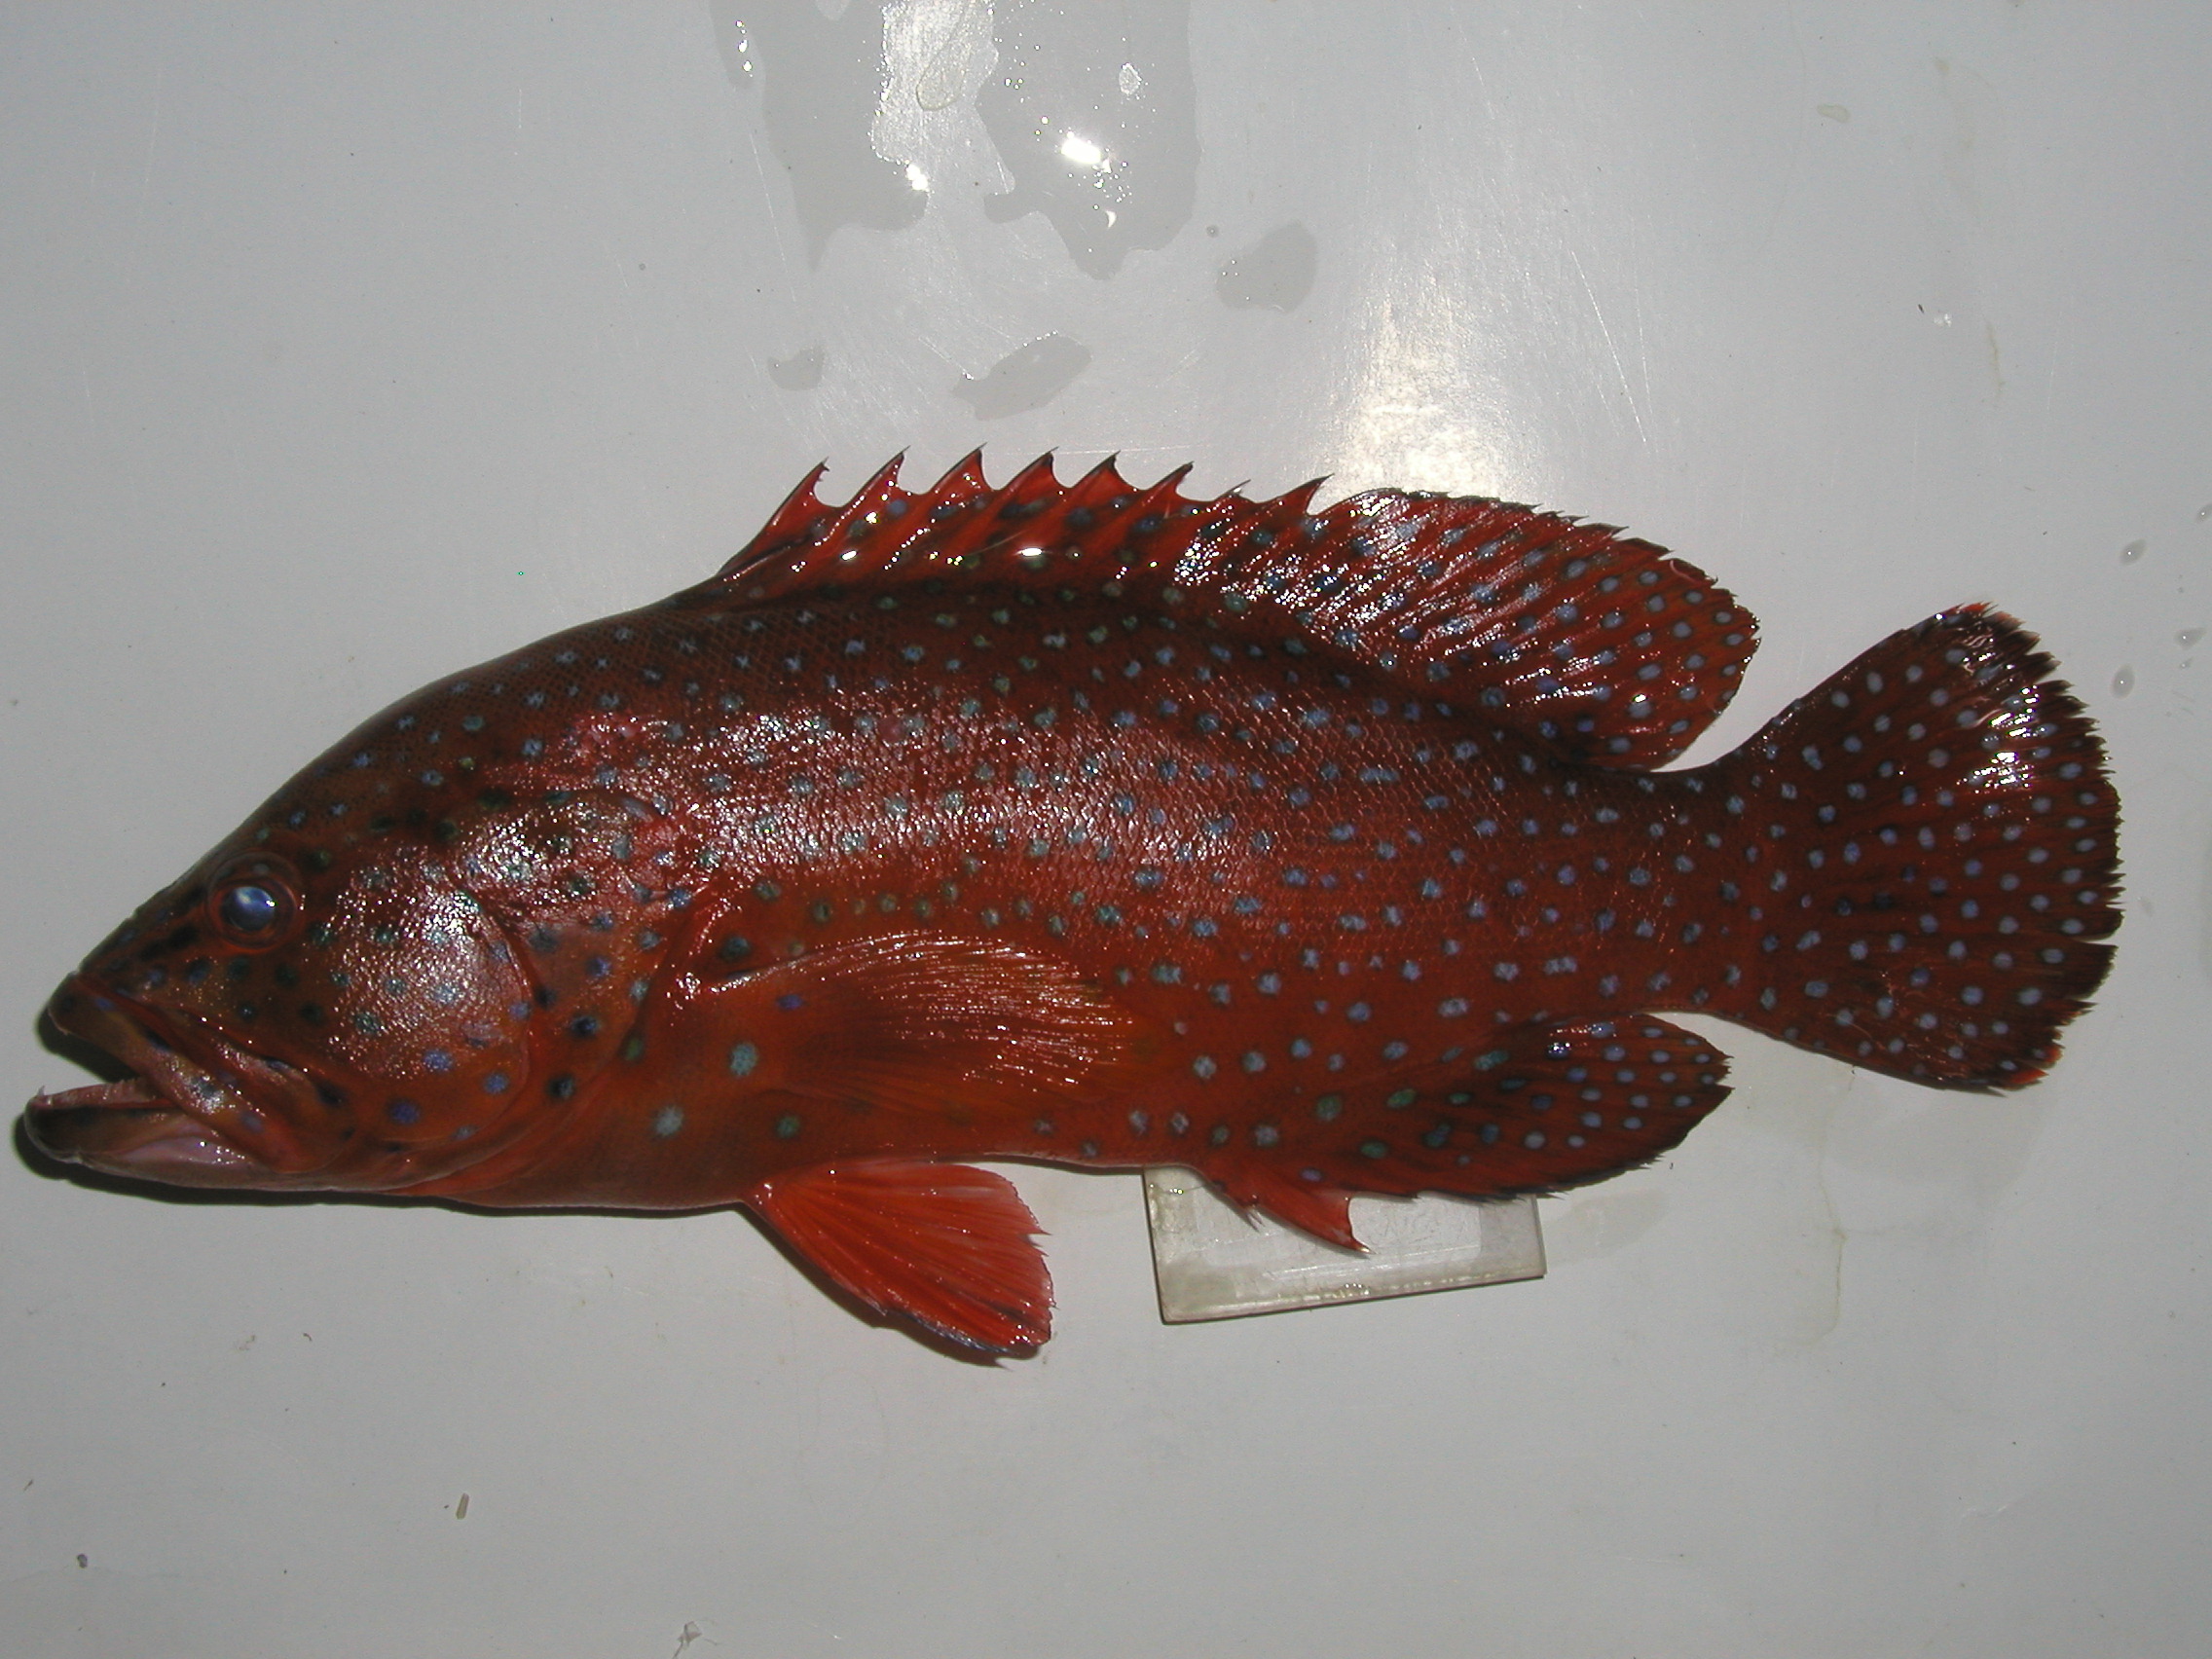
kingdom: Animalia
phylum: Chordata
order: Perciformes
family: Serranidae
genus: Cephalopholis
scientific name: Cephalopholis miniata
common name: Coral hind
